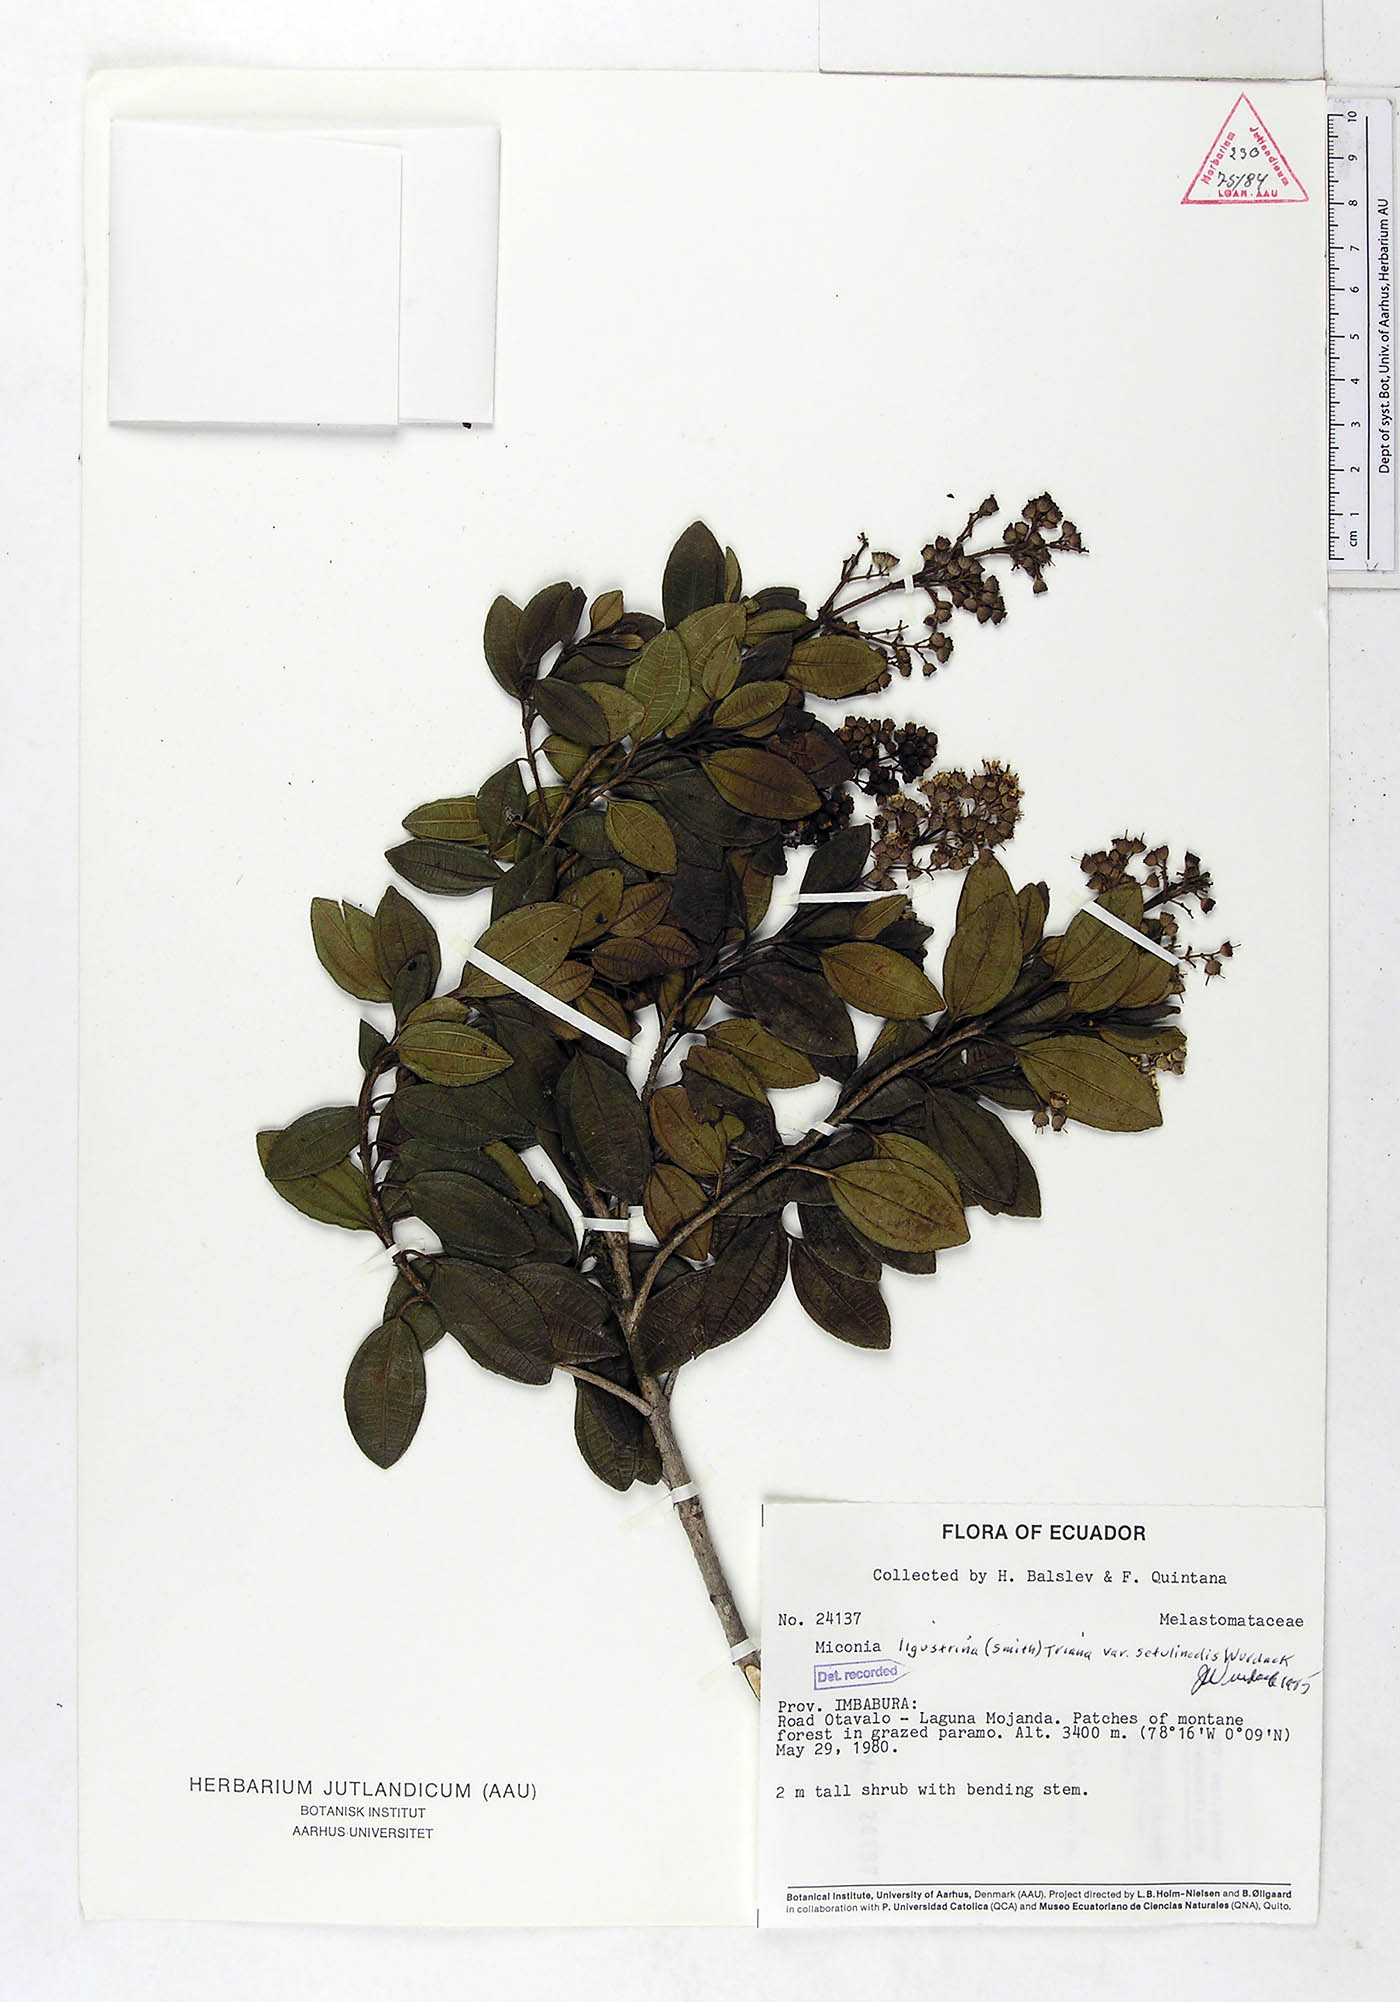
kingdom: Plantae
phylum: Tracheophyta
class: Magnoliopsida
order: Myrtales
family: Melastomataceae
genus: Miconia
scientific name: Miconia ligustrina
